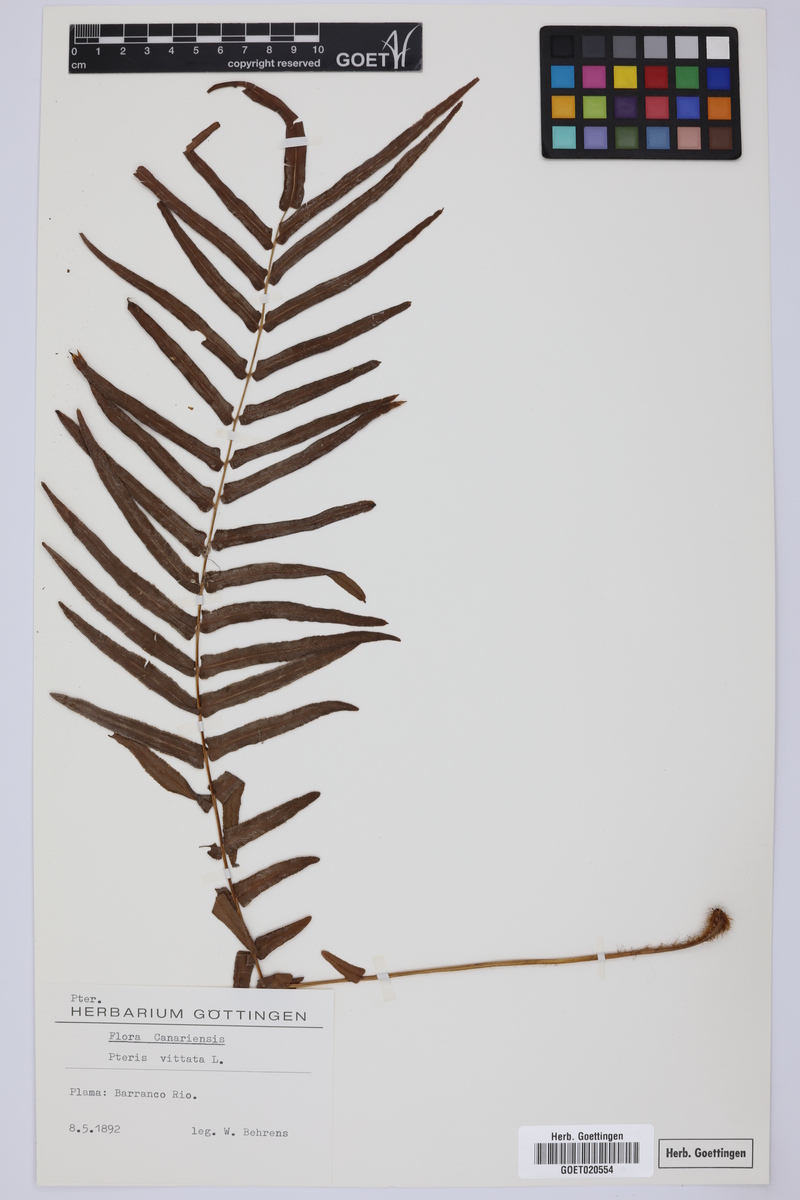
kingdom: Plantae
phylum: Tracheophyta
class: Polypodiopsida
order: Polypodiales
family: Pteridaceae
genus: Pteris
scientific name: Pteris vittata
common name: Ladder brake
